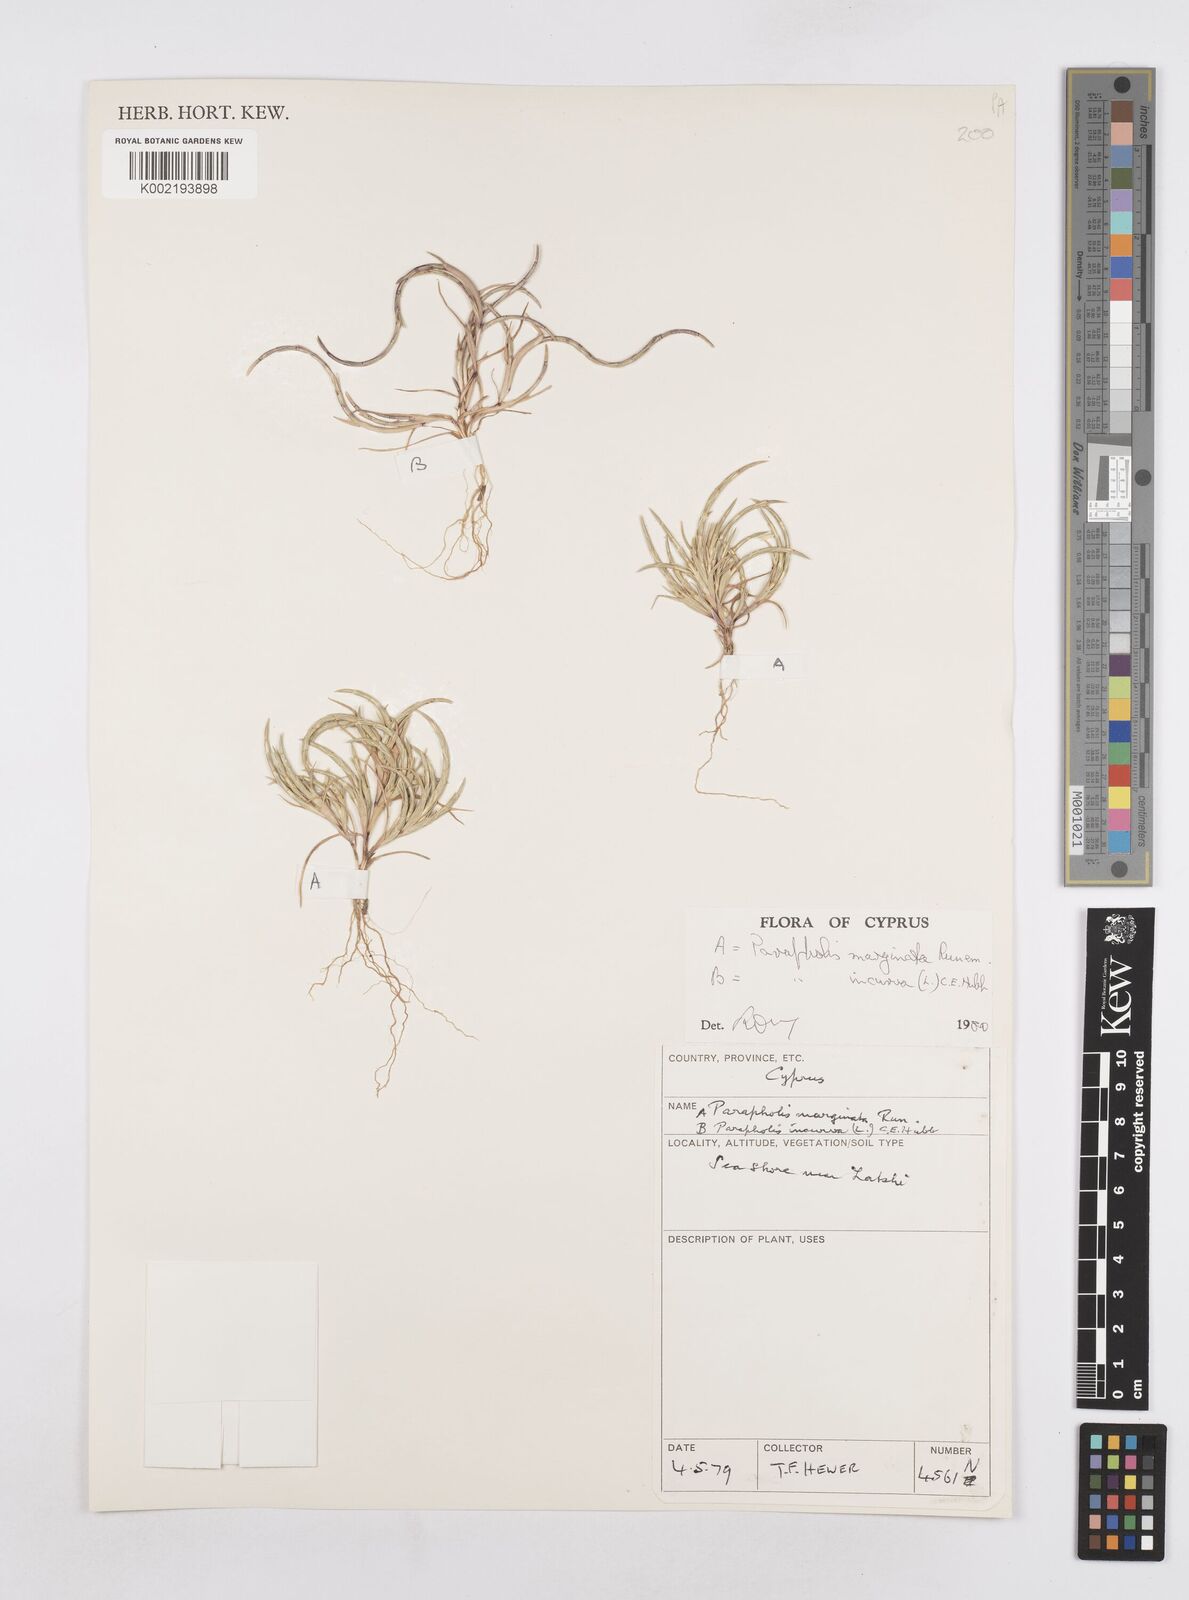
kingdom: Plantae
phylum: Tracheophyta
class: Liliopsida
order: Poales
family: Poaceae
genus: Parapholis
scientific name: Parapholis incurva
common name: Curved sicklegrass
